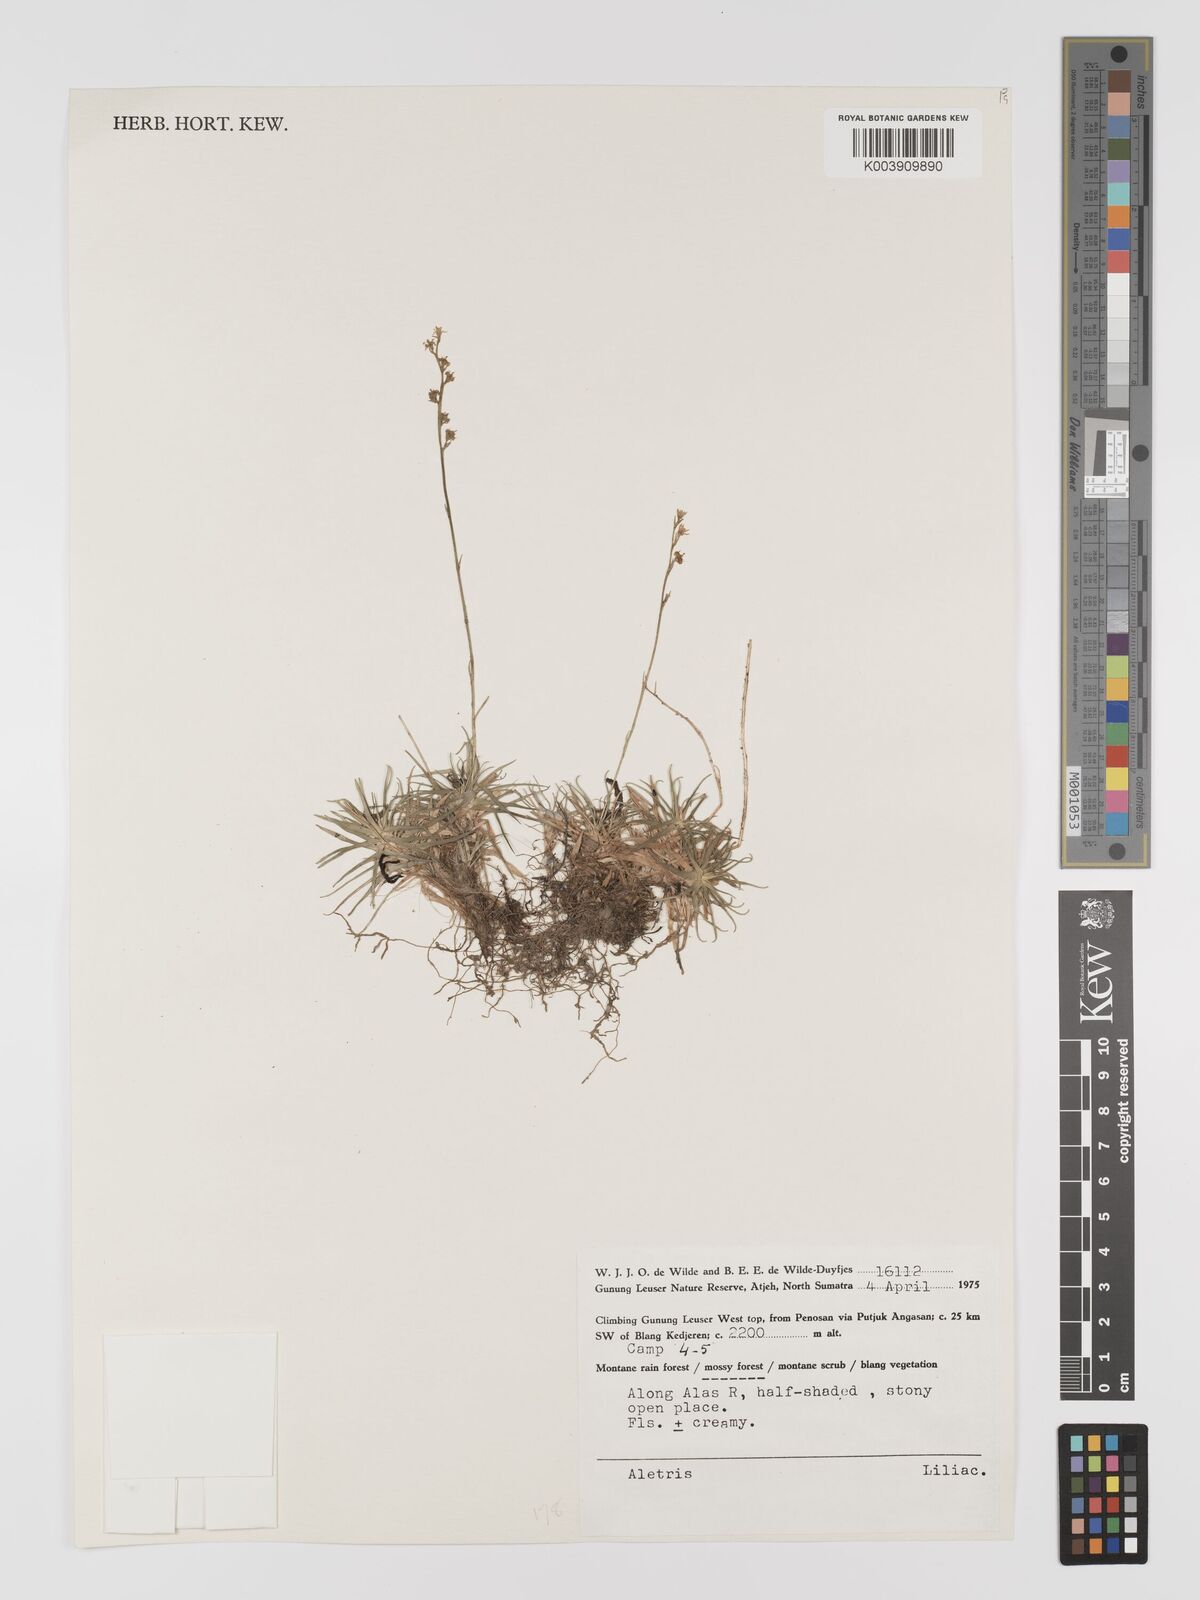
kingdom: Plantae
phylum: Tracheophyta
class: Liliopsida
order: Dioscoreales
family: Nartheciaceae
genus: Aletris
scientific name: Aletris
